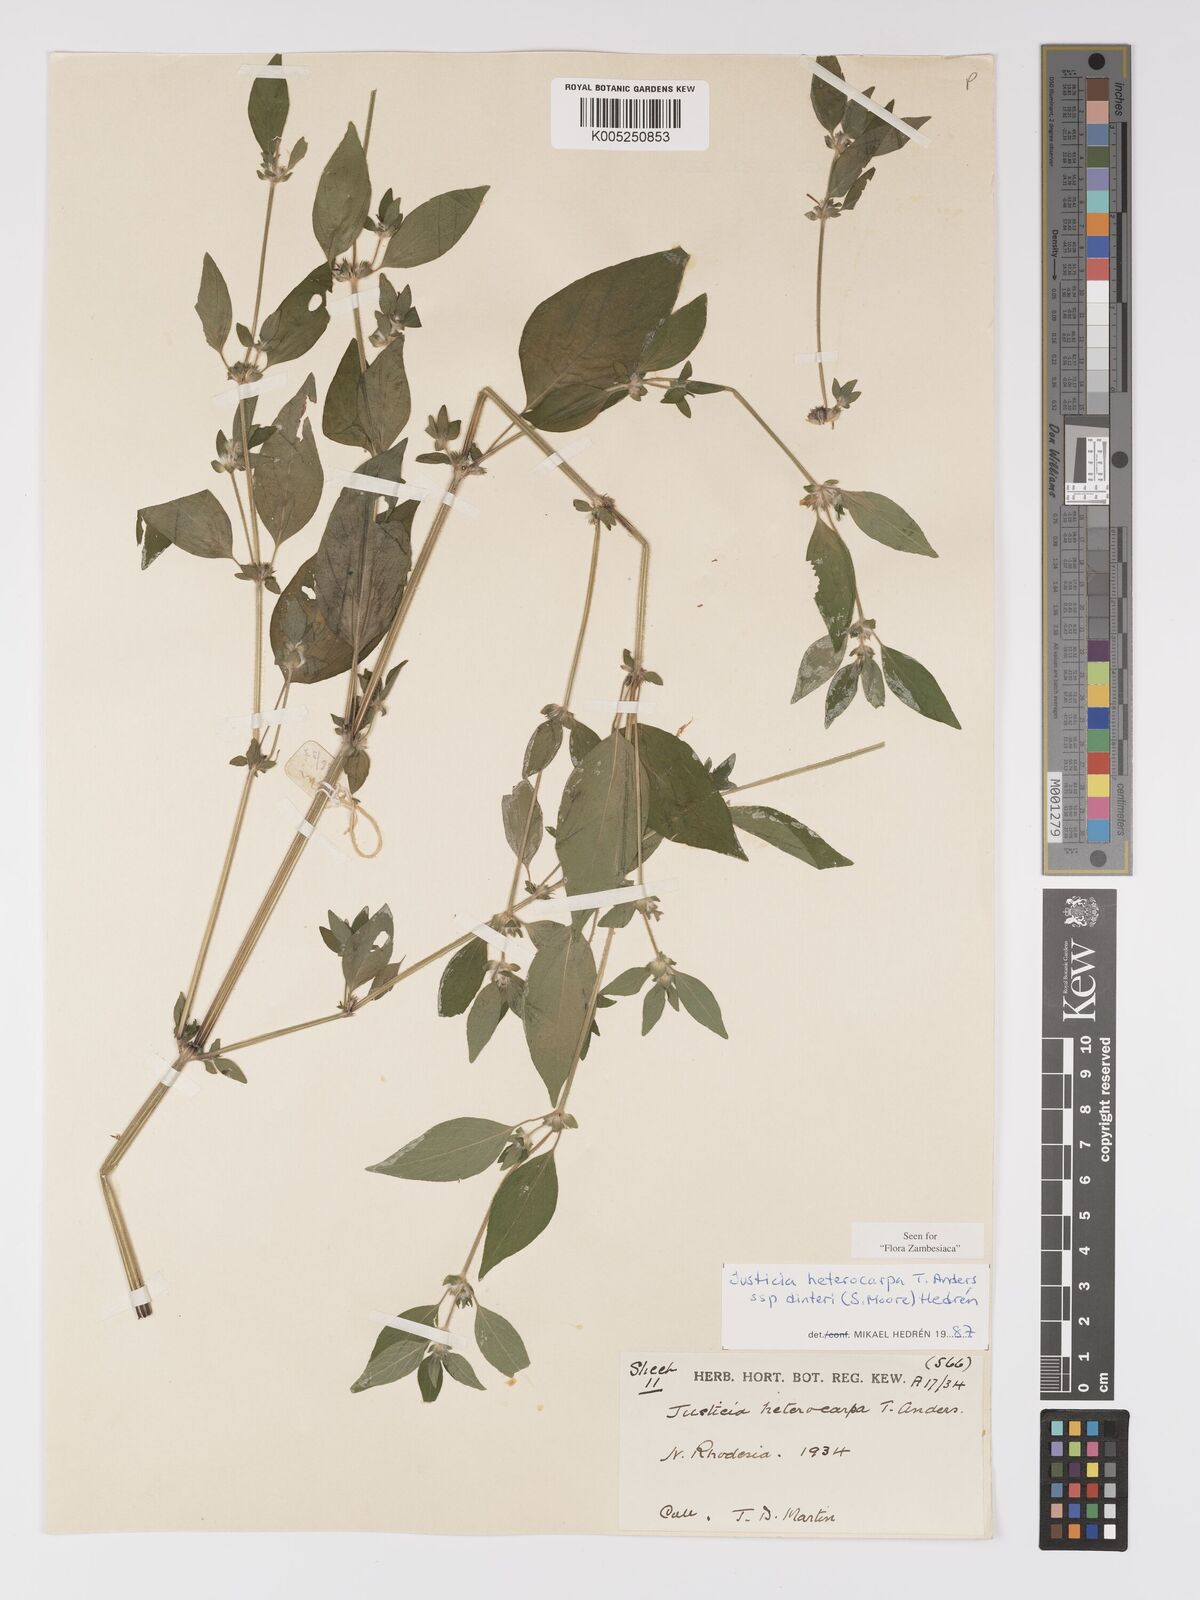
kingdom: Plantae
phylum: Tracheophyta
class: Magnoliopsida
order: Lamiales
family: Acanthaceae
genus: Justicia
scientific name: Justicia heterocarpa
